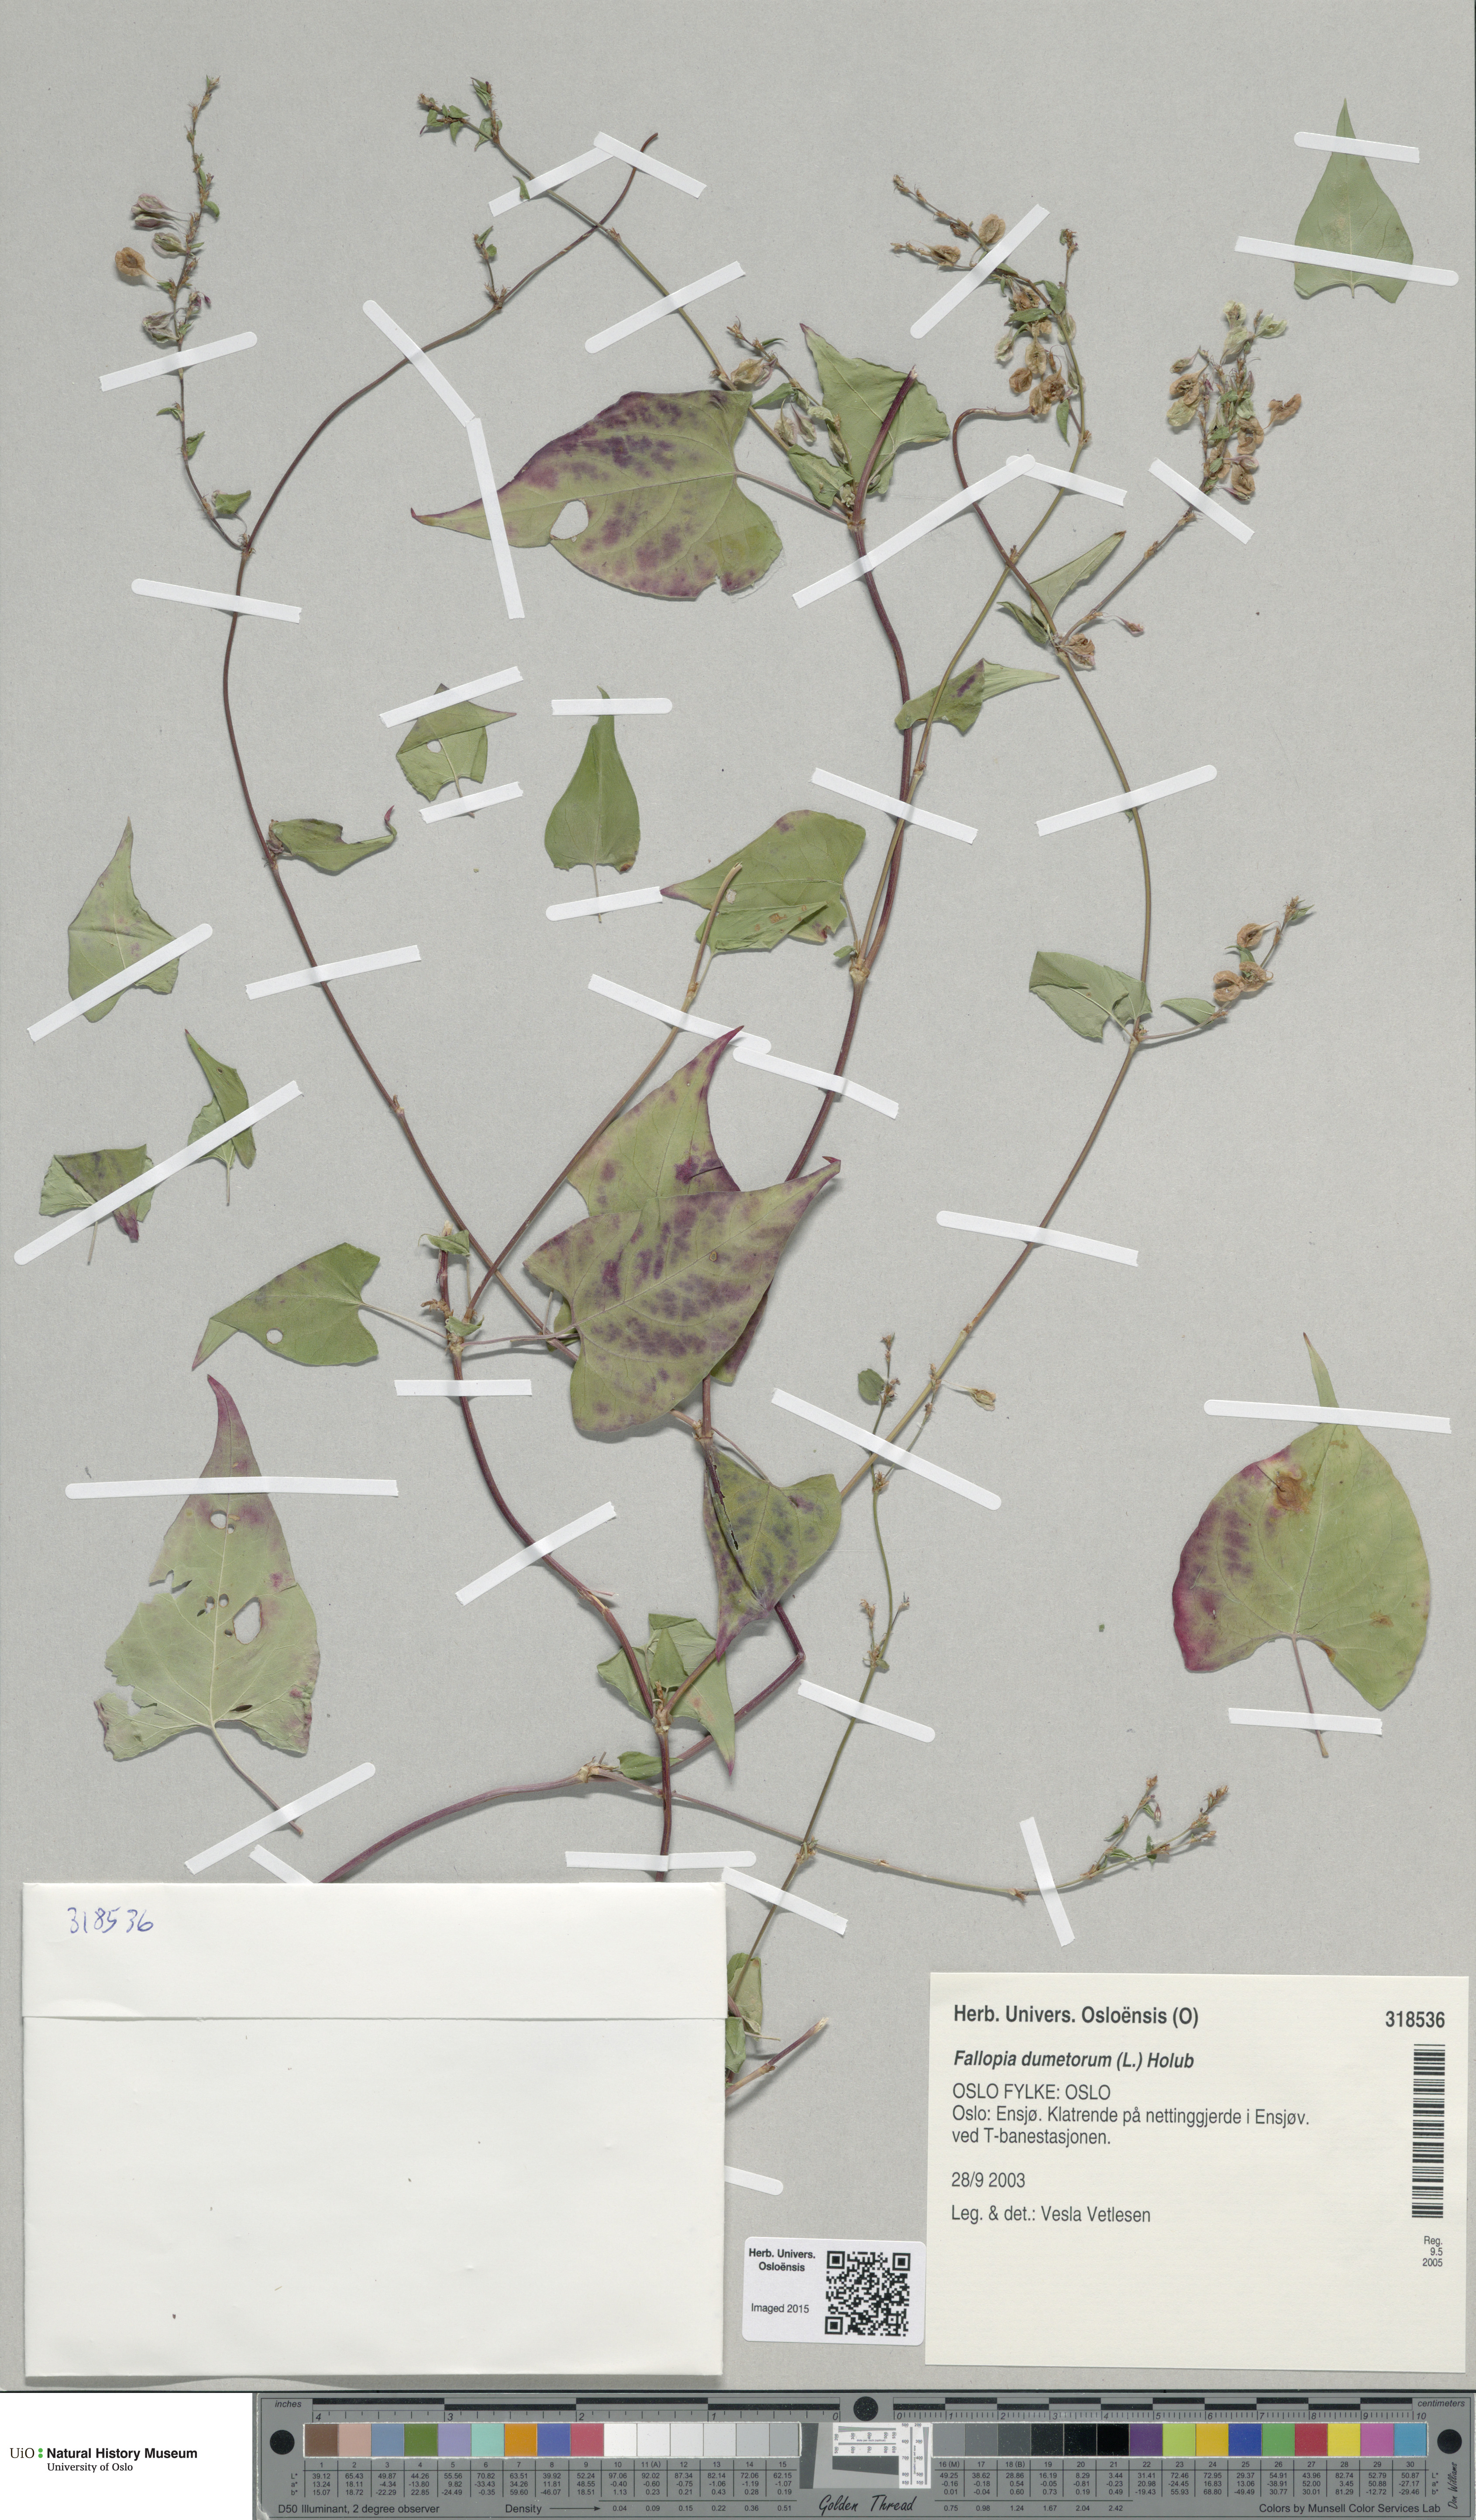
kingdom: Plantae
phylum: Tracheophyta
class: Magnoliopsida
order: Caryophyllales
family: Polygonaceae
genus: Fallopia
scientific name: Fallopia dumetorum
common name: Copse-bindweed
